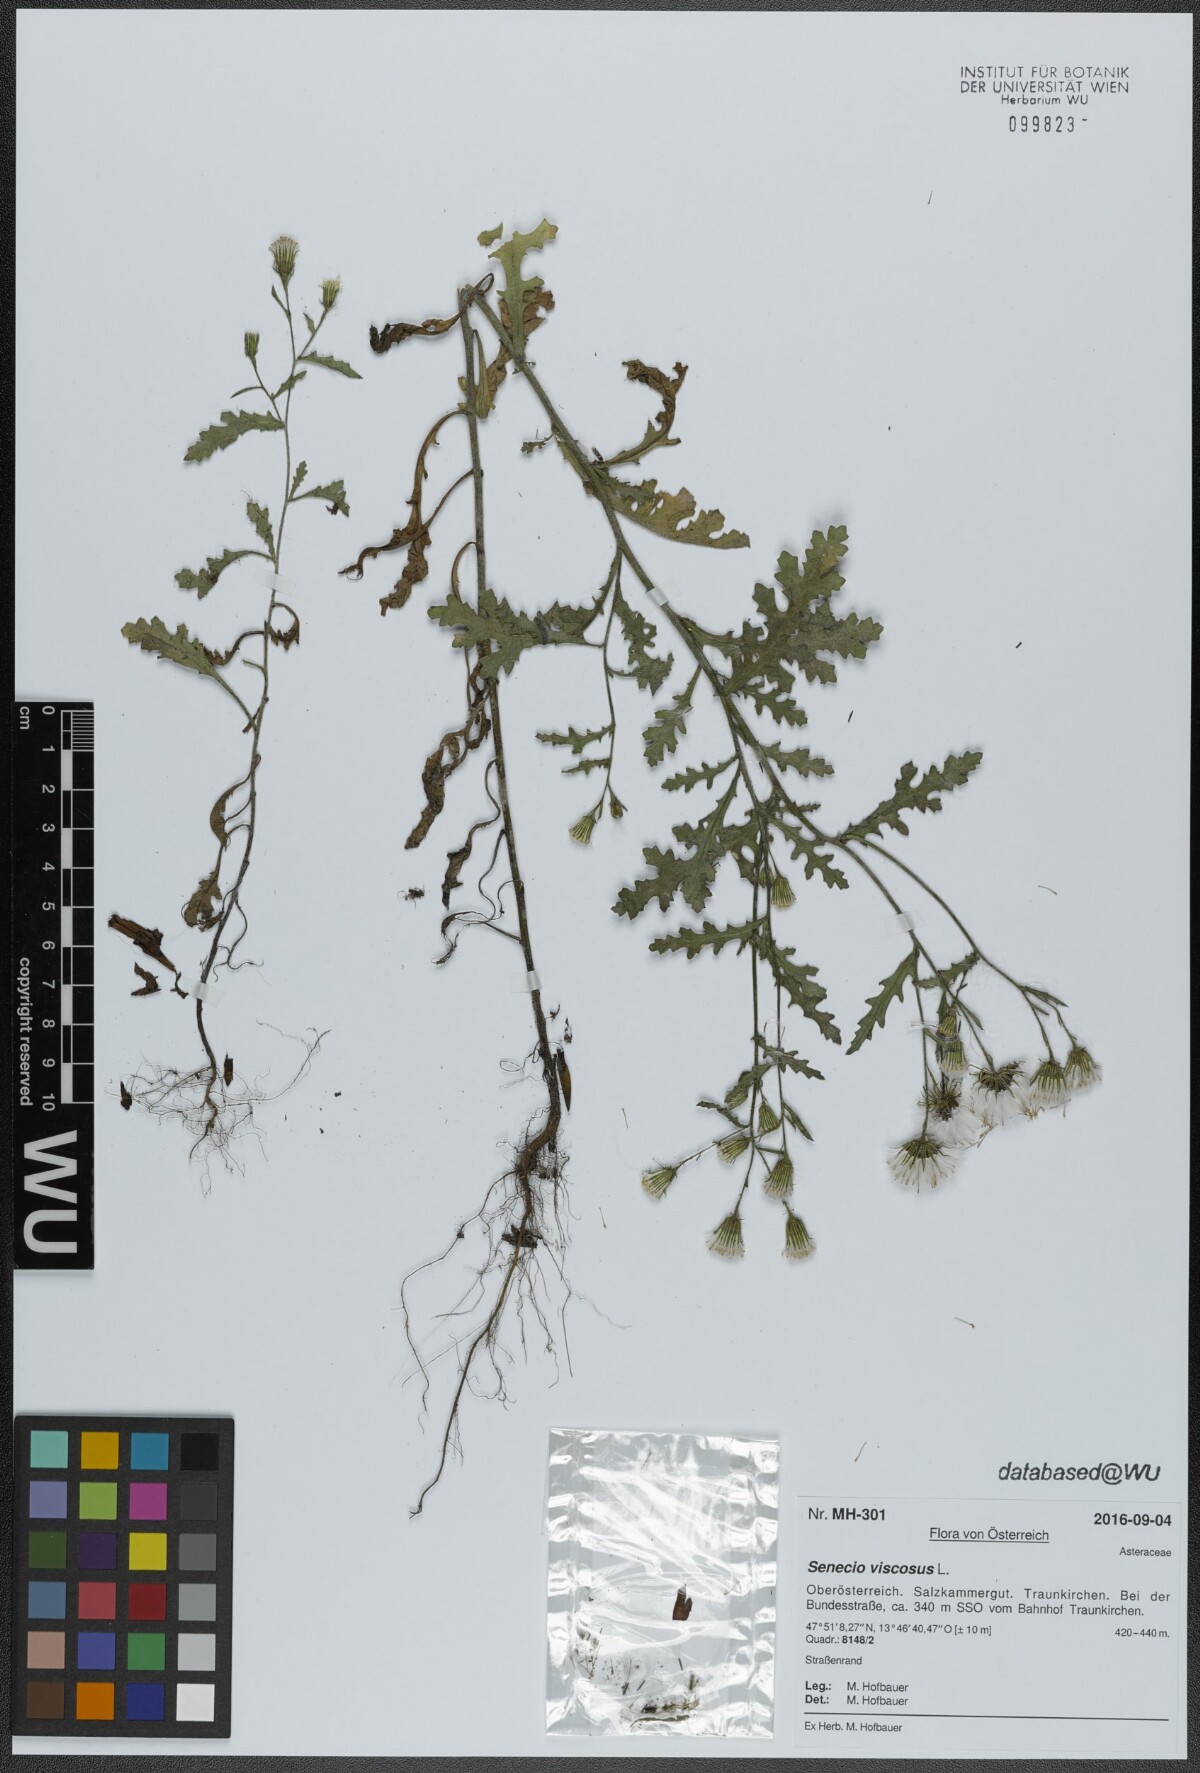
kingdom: Plantae
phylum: Tracheophyta
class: Magnoliopsida
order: Asterales
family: Asteraceae
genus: Senecio
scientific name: Senecio viscosus
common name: Sticky groundsel
